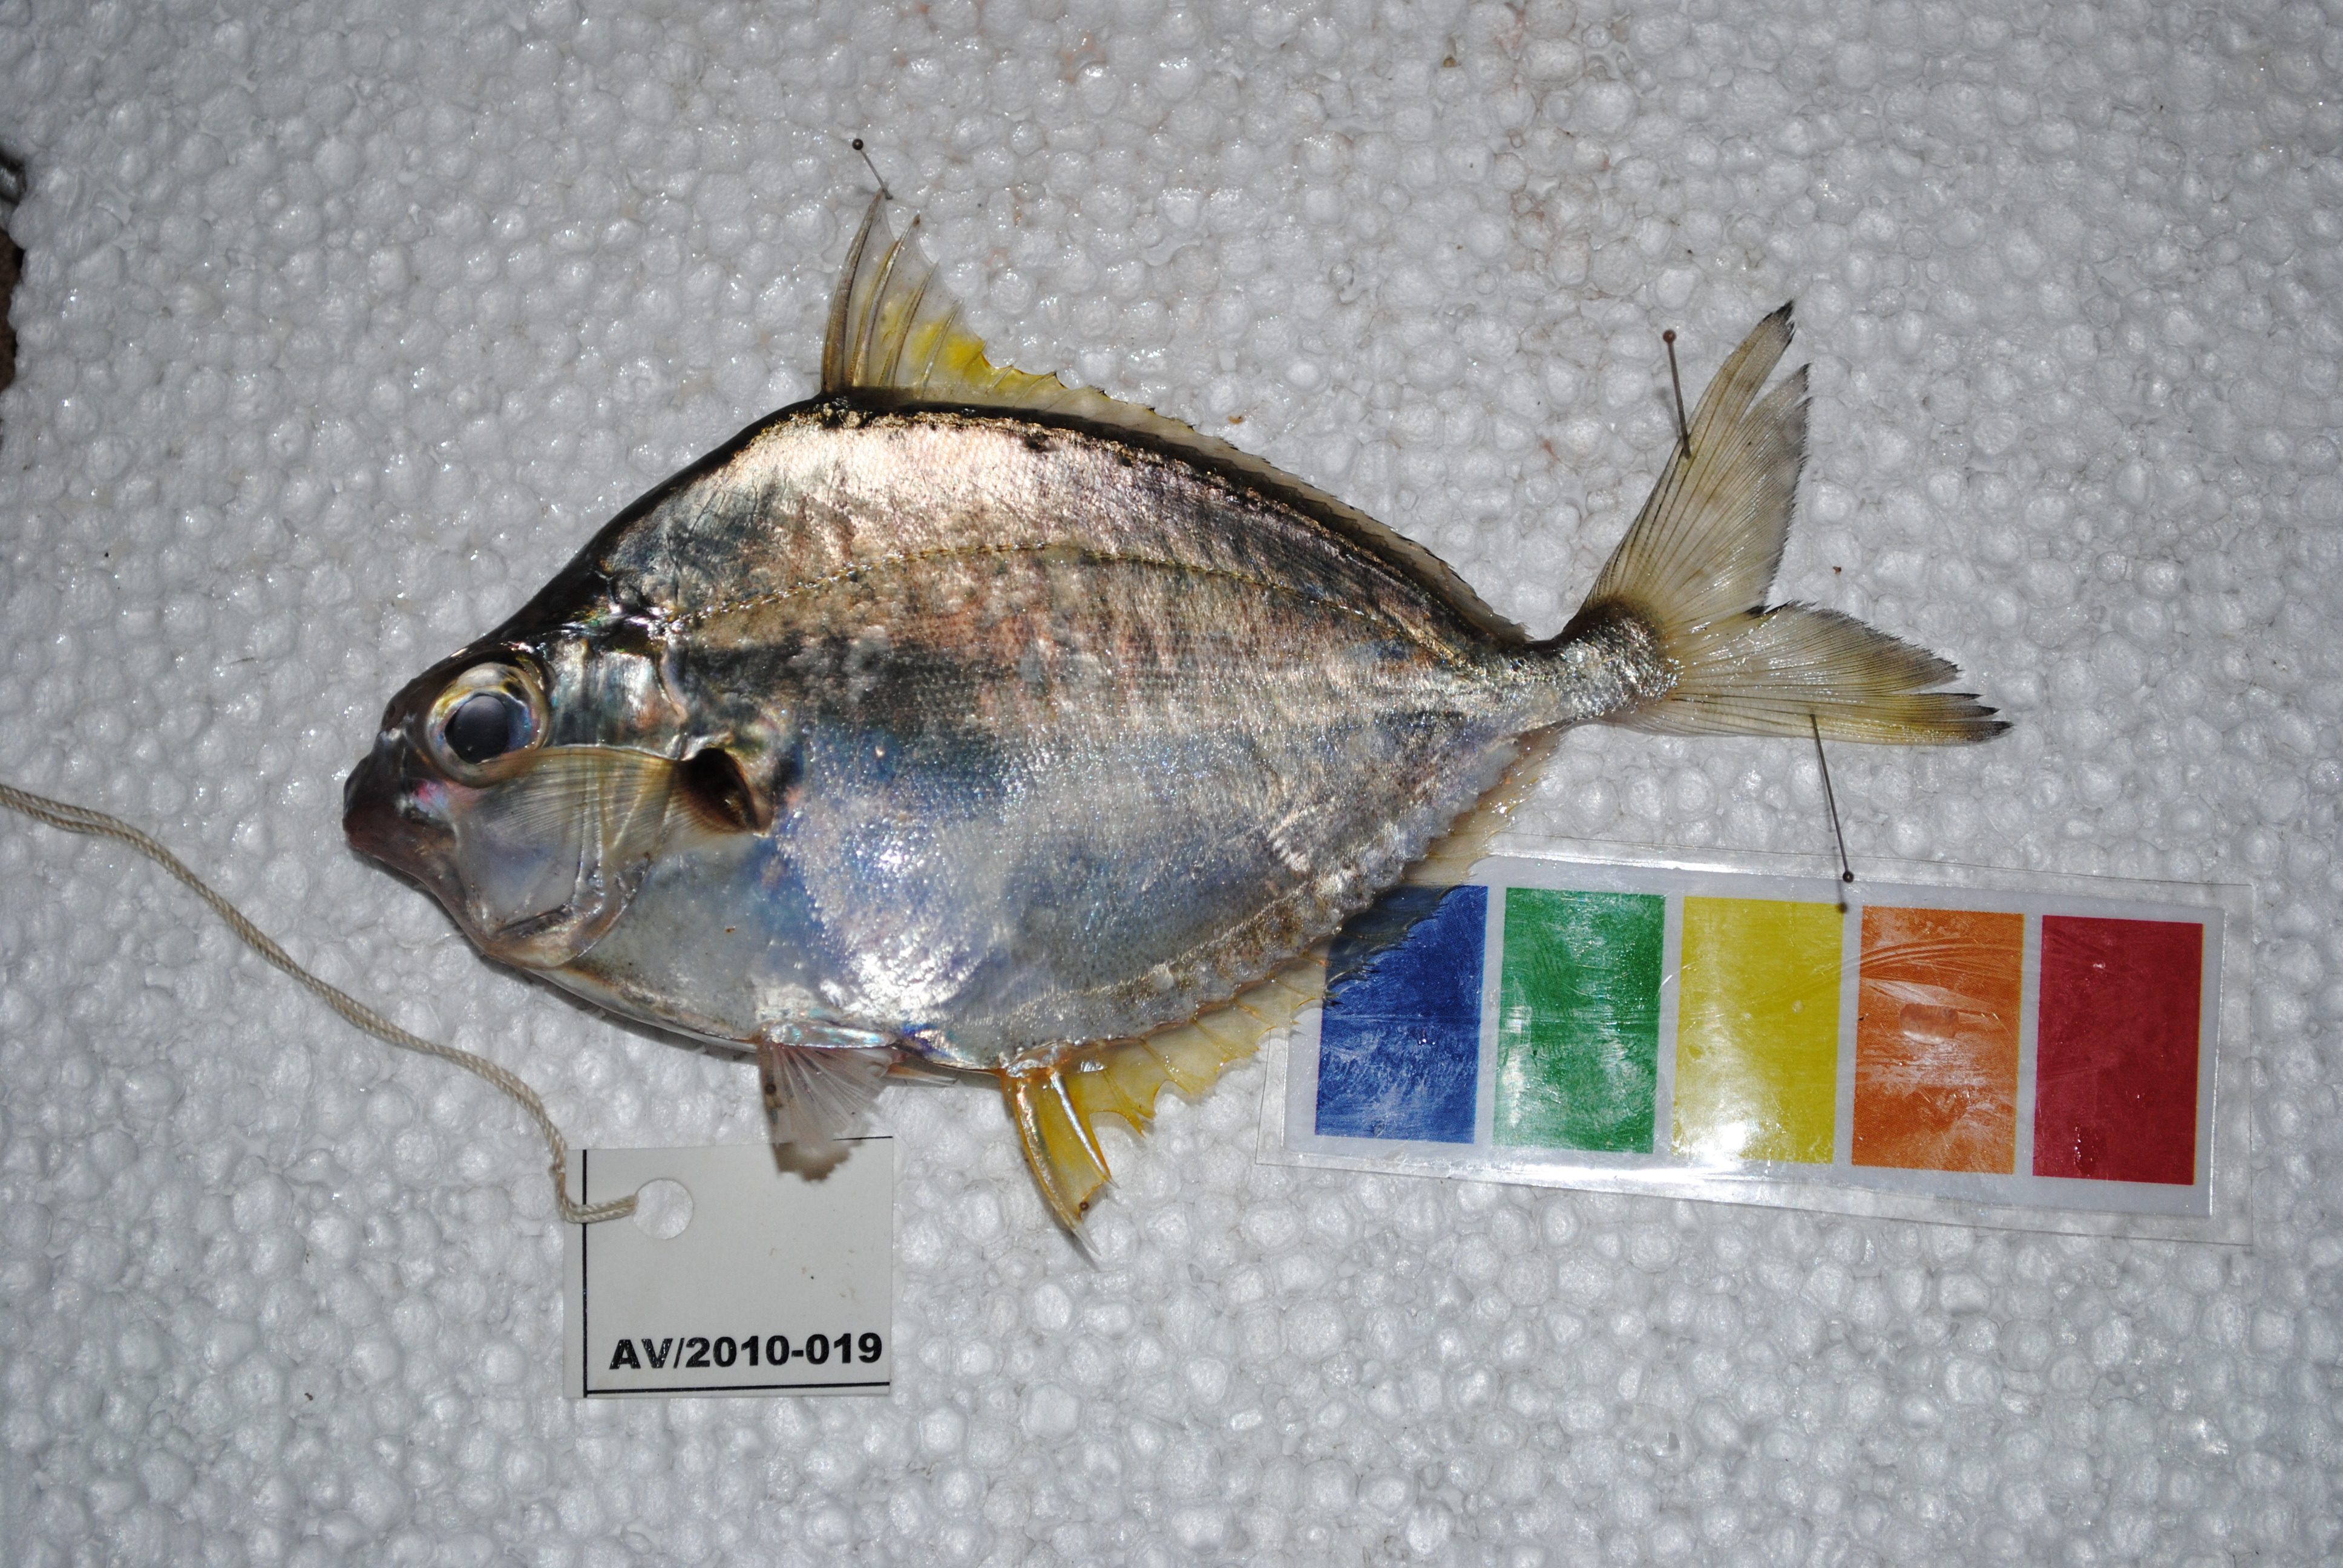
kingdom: Animalia
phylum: Chordata
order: Perciformes
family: Leiognathidae
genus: Leiognathus
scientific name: Leiognathus equulus
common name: Common ponyfish
